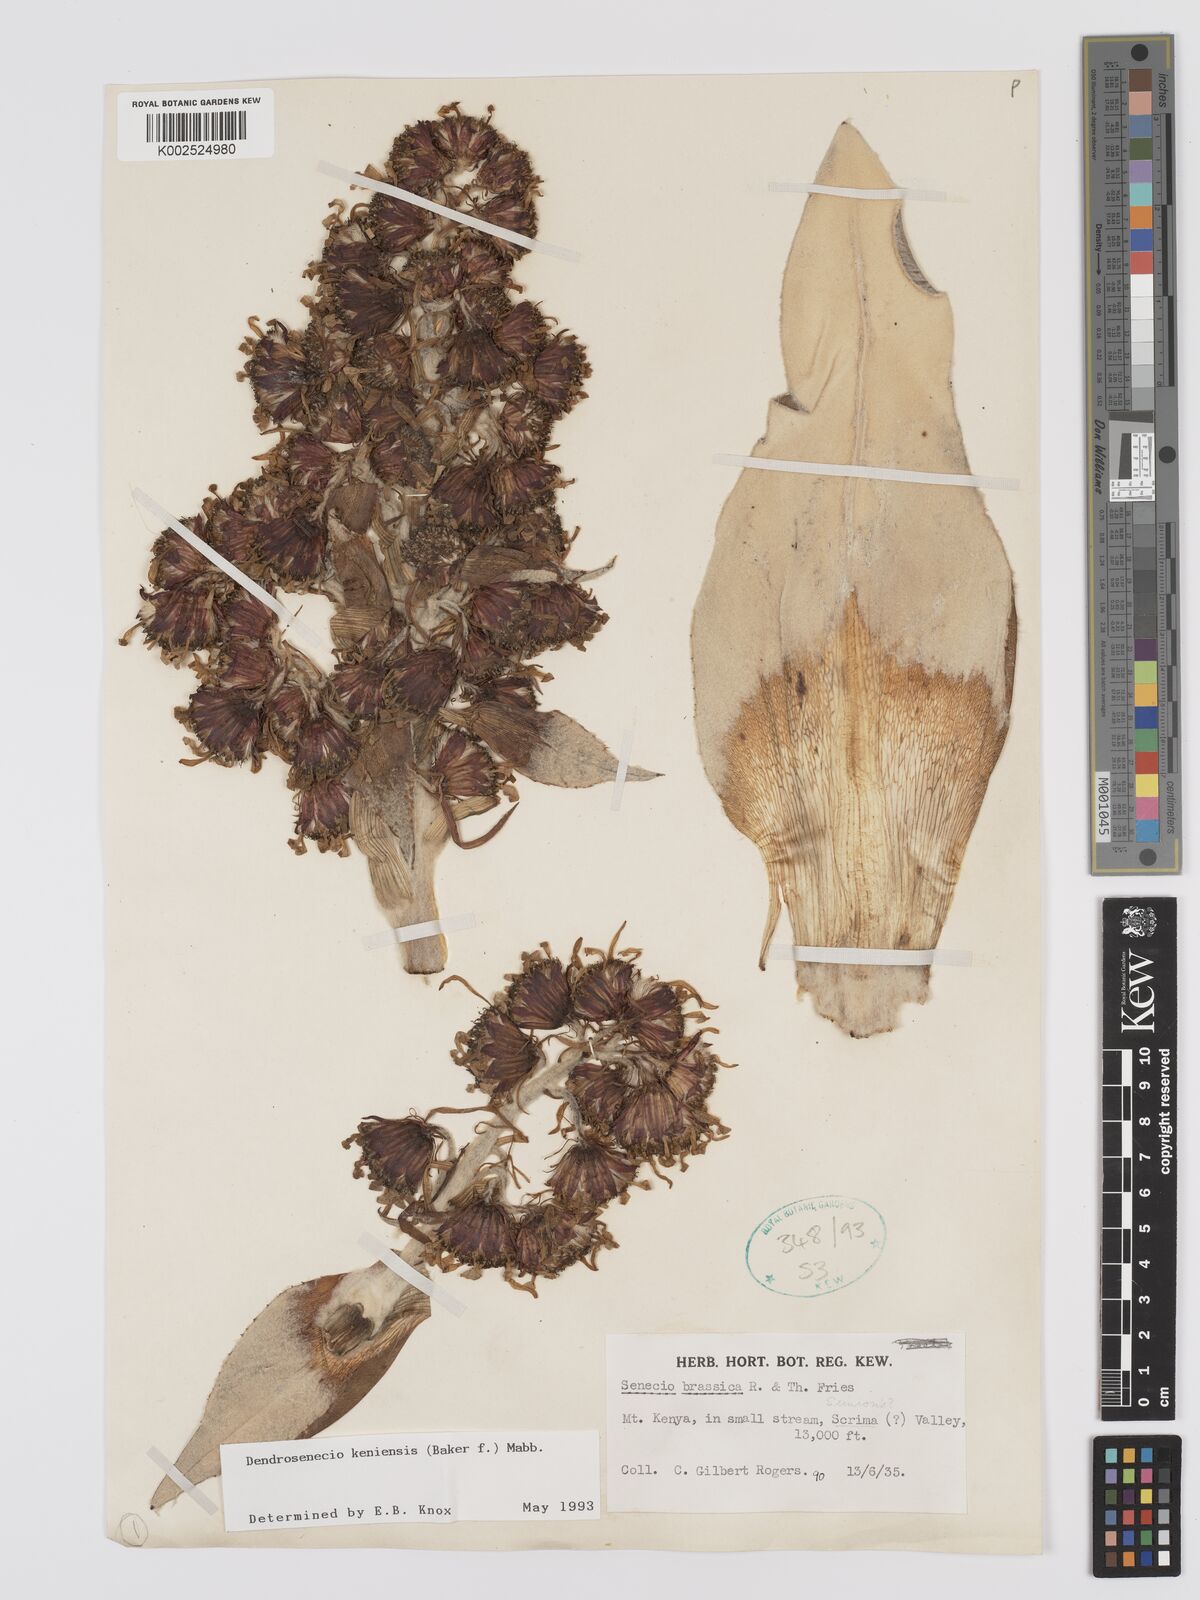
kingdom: Plantae
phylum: Tracheophyta
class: Magnoliopsida
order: Asterales
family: Asteraceae
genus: Dendrosenecio
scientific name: Dendrosenecio keniensis
